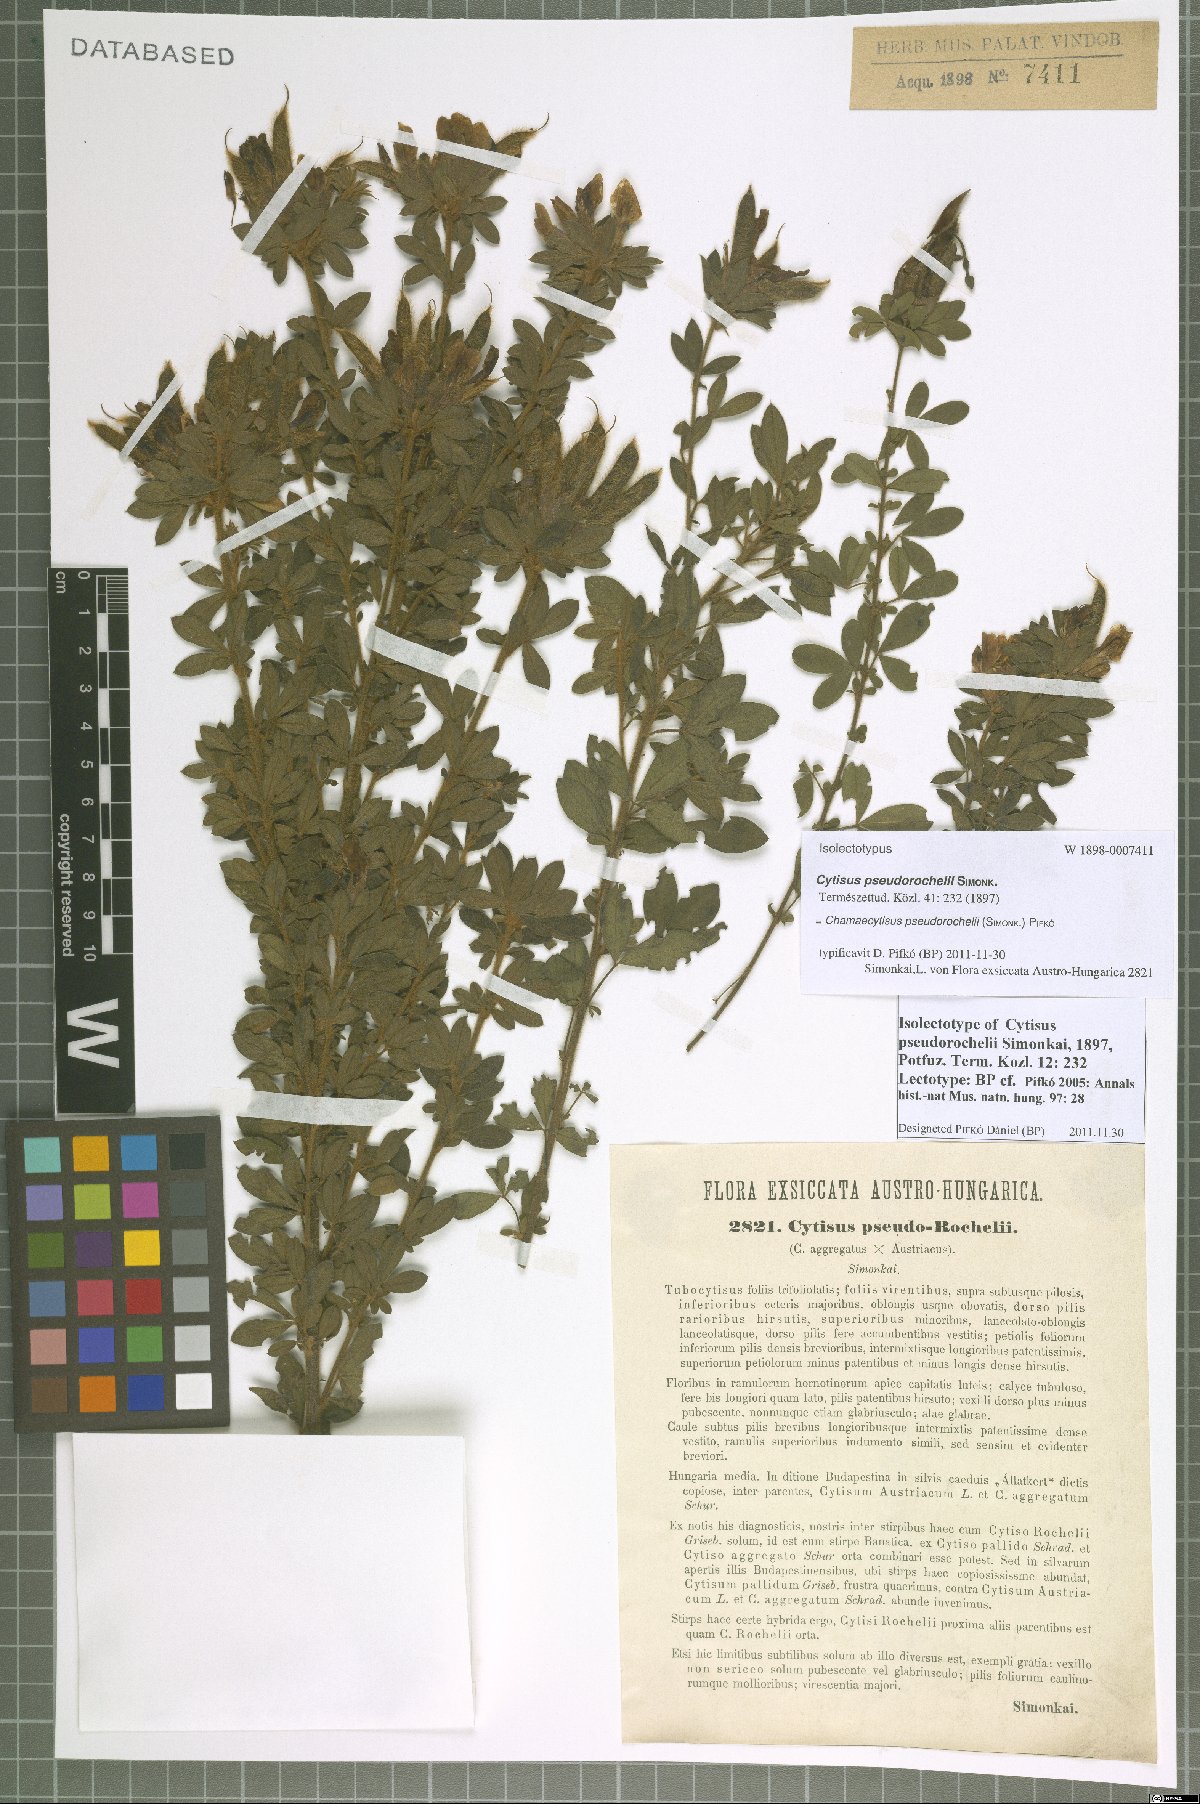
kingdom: Plantae
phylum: Tracheophyta
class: Magnoliopsida
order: Fabales
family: Fabaceae
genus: Chamaecytisus
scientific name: Chamaecytisus pseudorochelii
